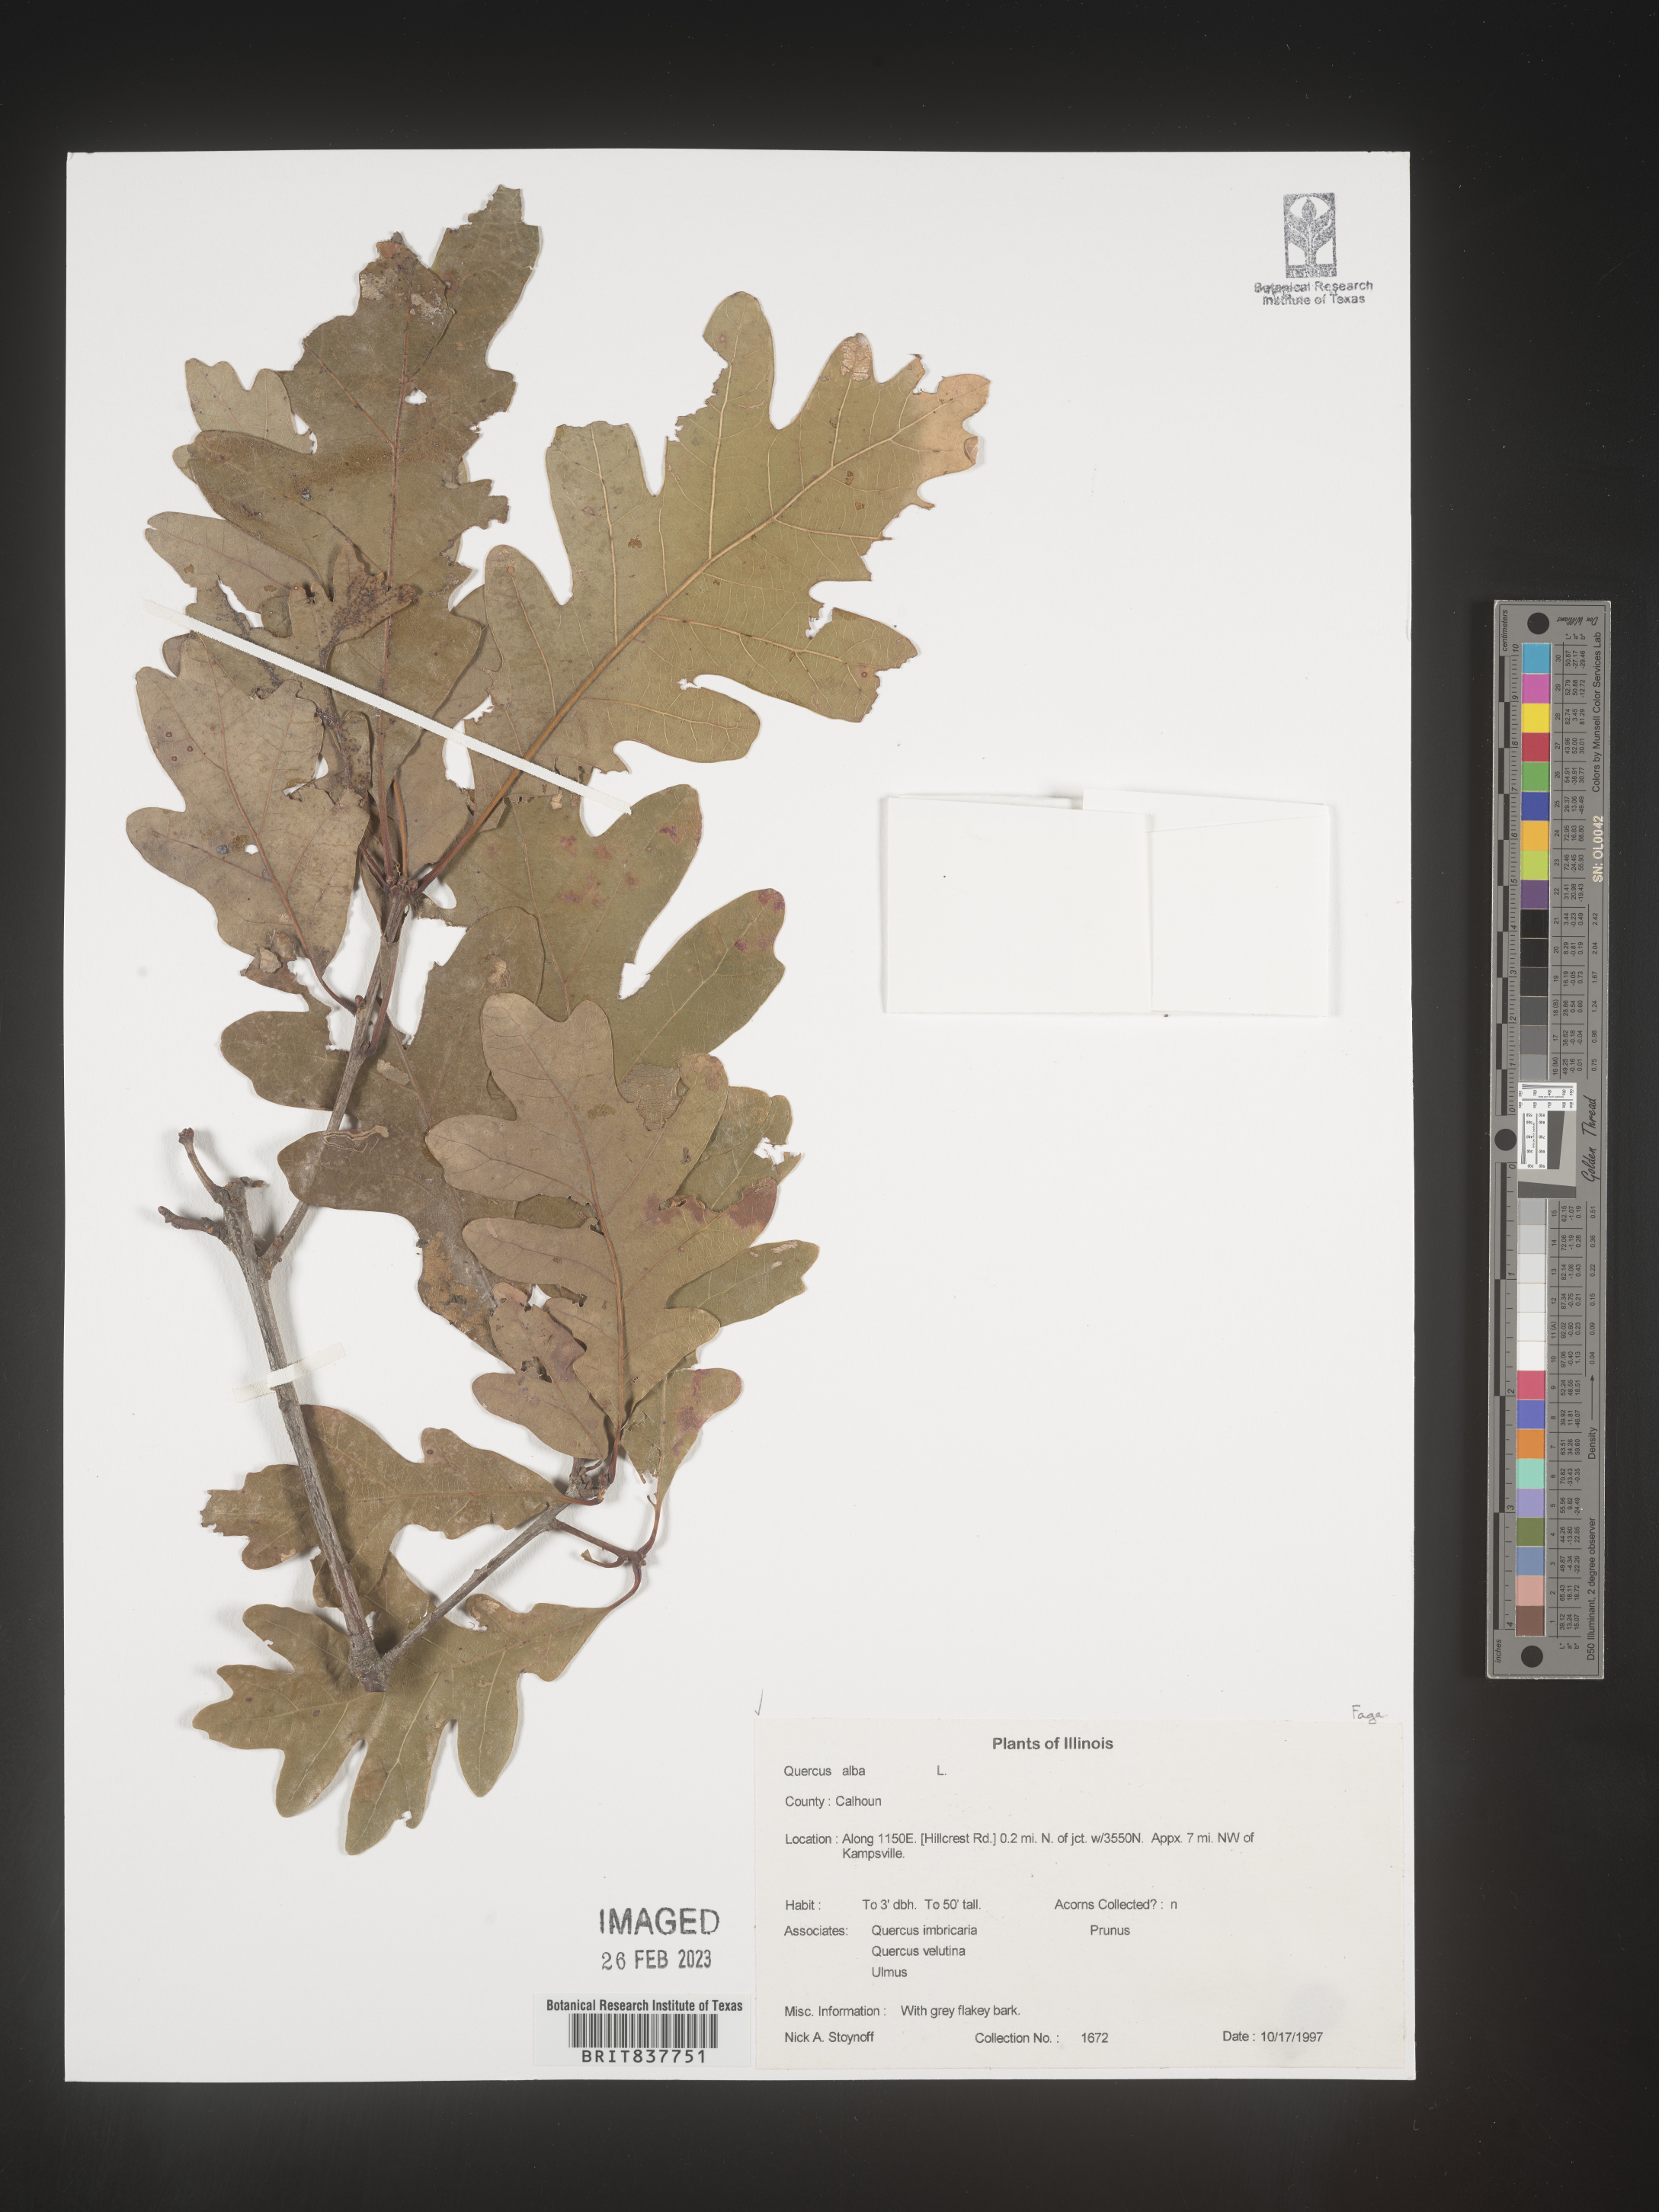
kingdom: Plantae
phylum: Tracheophyta
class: Magnoliopsida
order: Fagales
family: Fagaceae
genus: Quercus
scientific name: Quercus alba
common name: White oak
